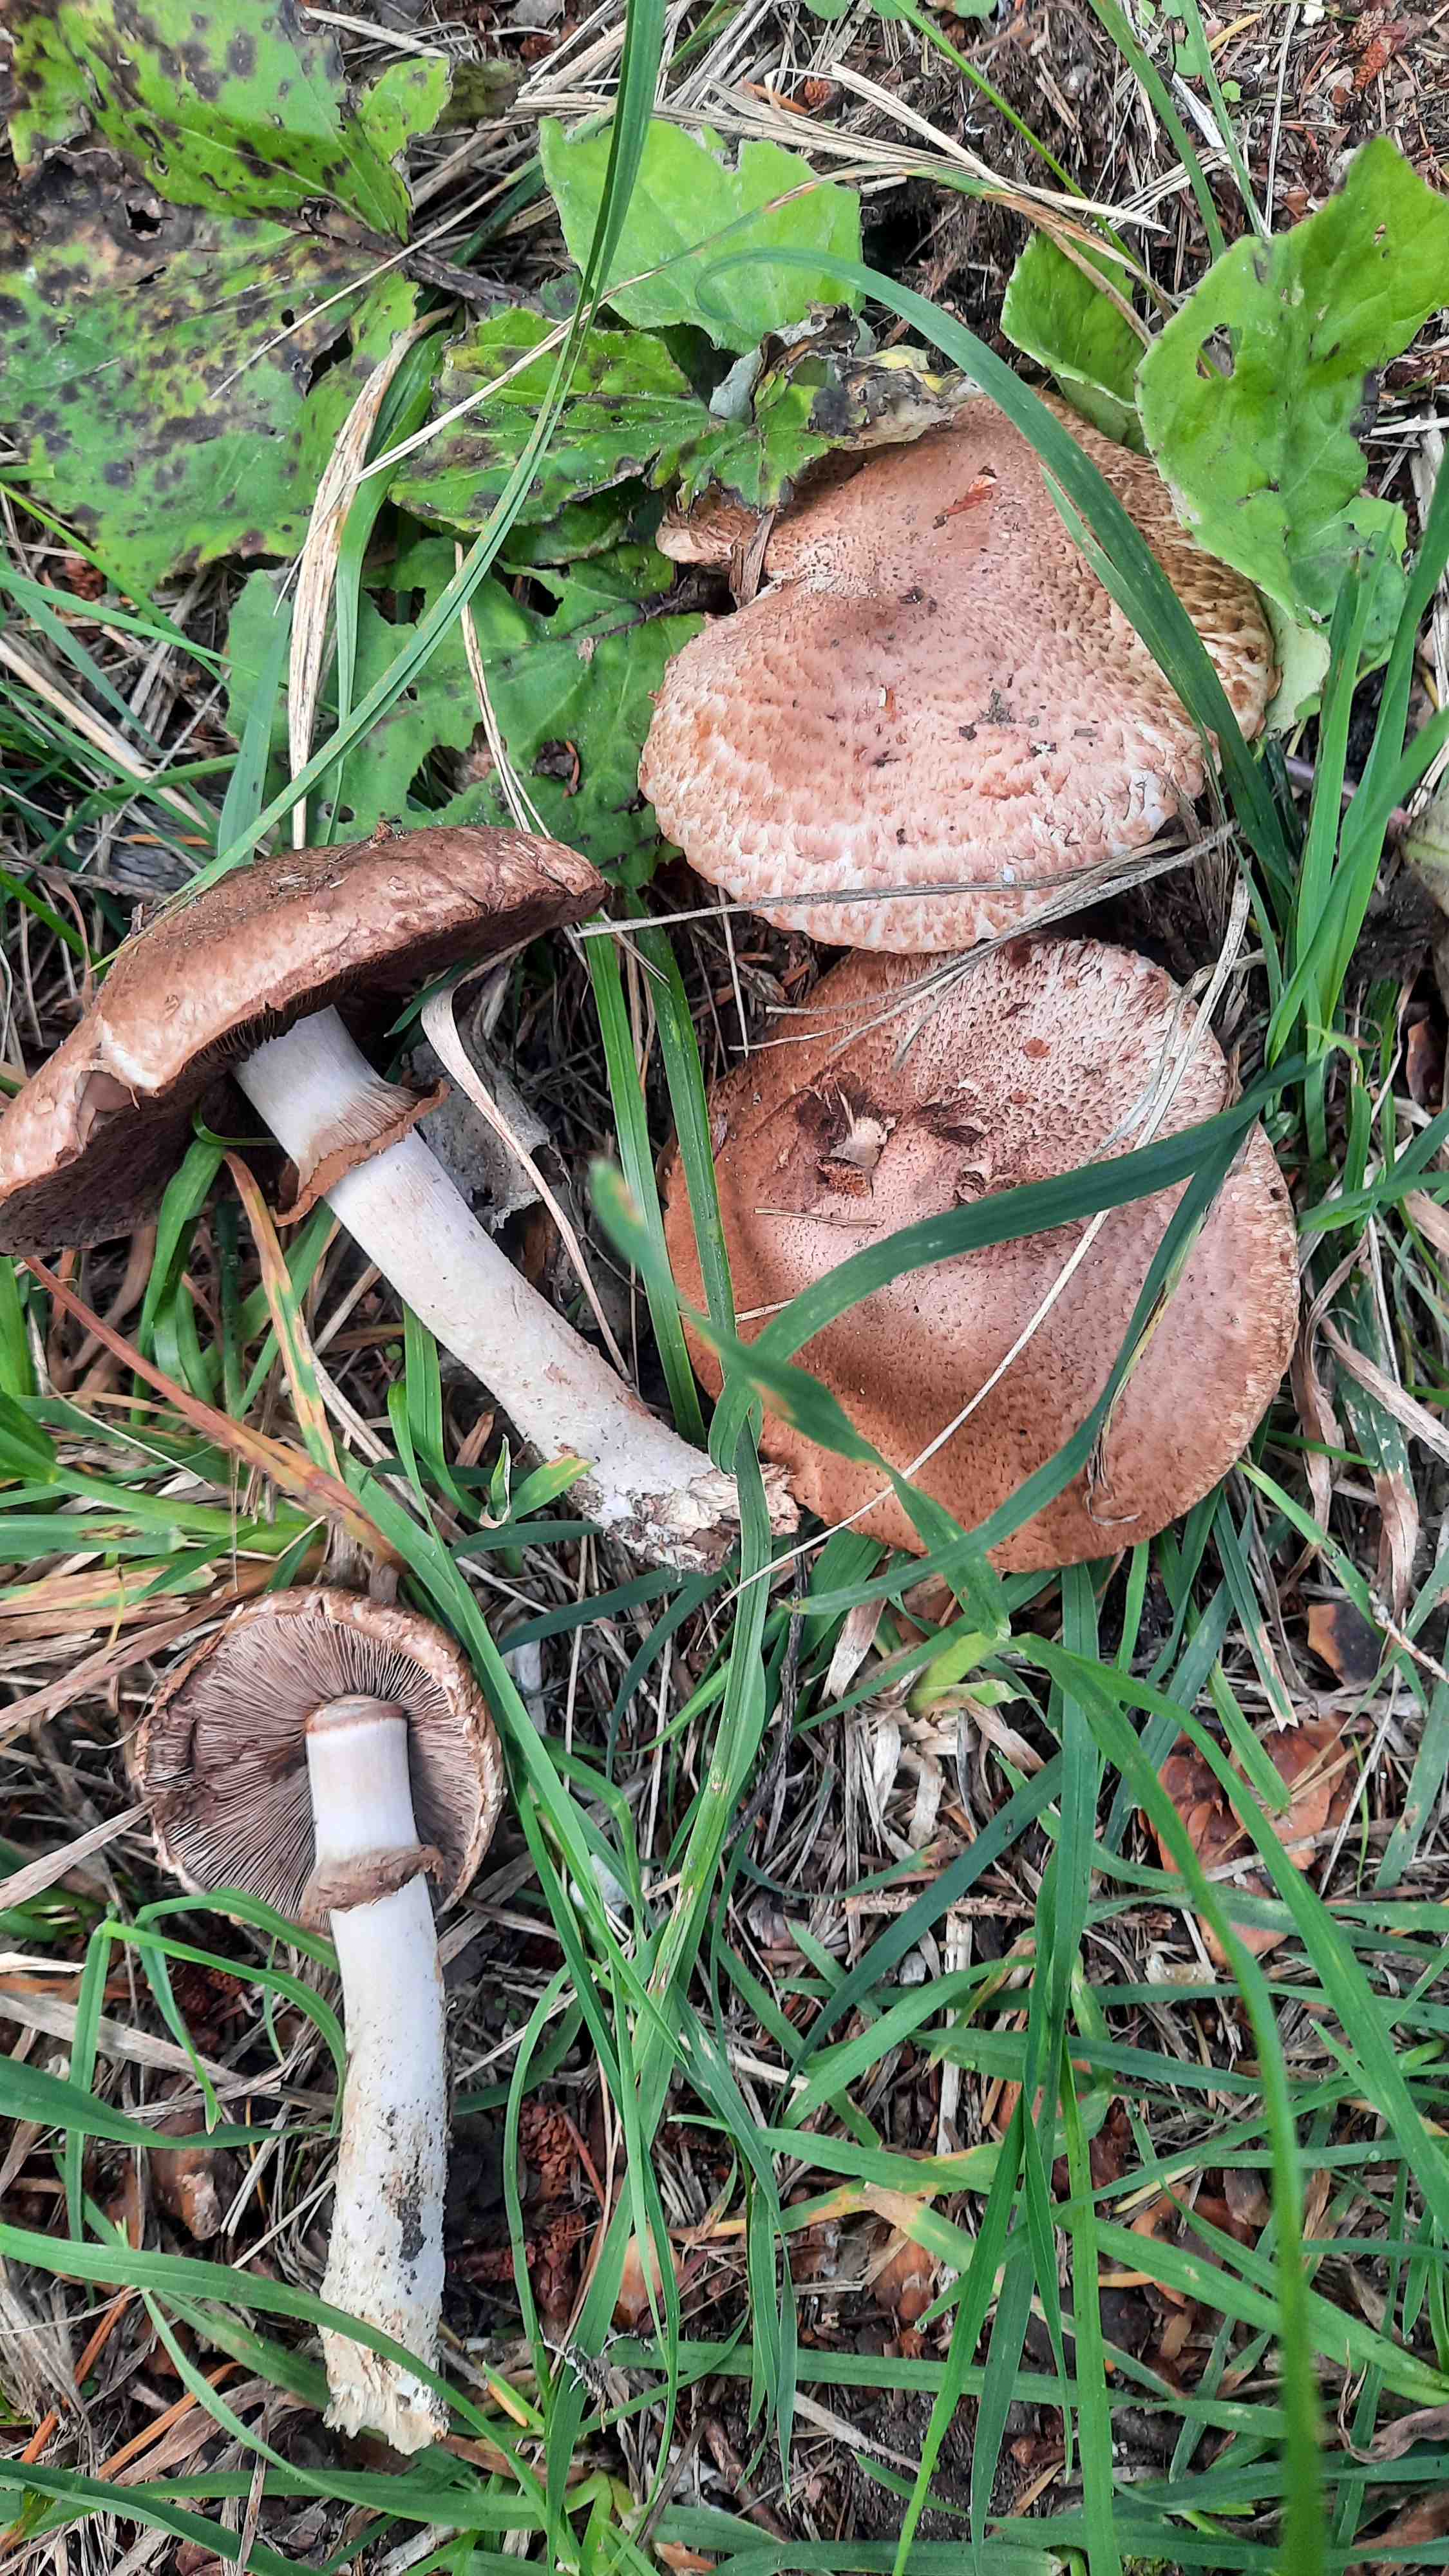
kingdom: Fungi
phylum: Basidiomycota
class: Agaricomycetes
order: Agaricales
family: Agaricaceae
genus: Agaricus
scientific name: Agaricus
